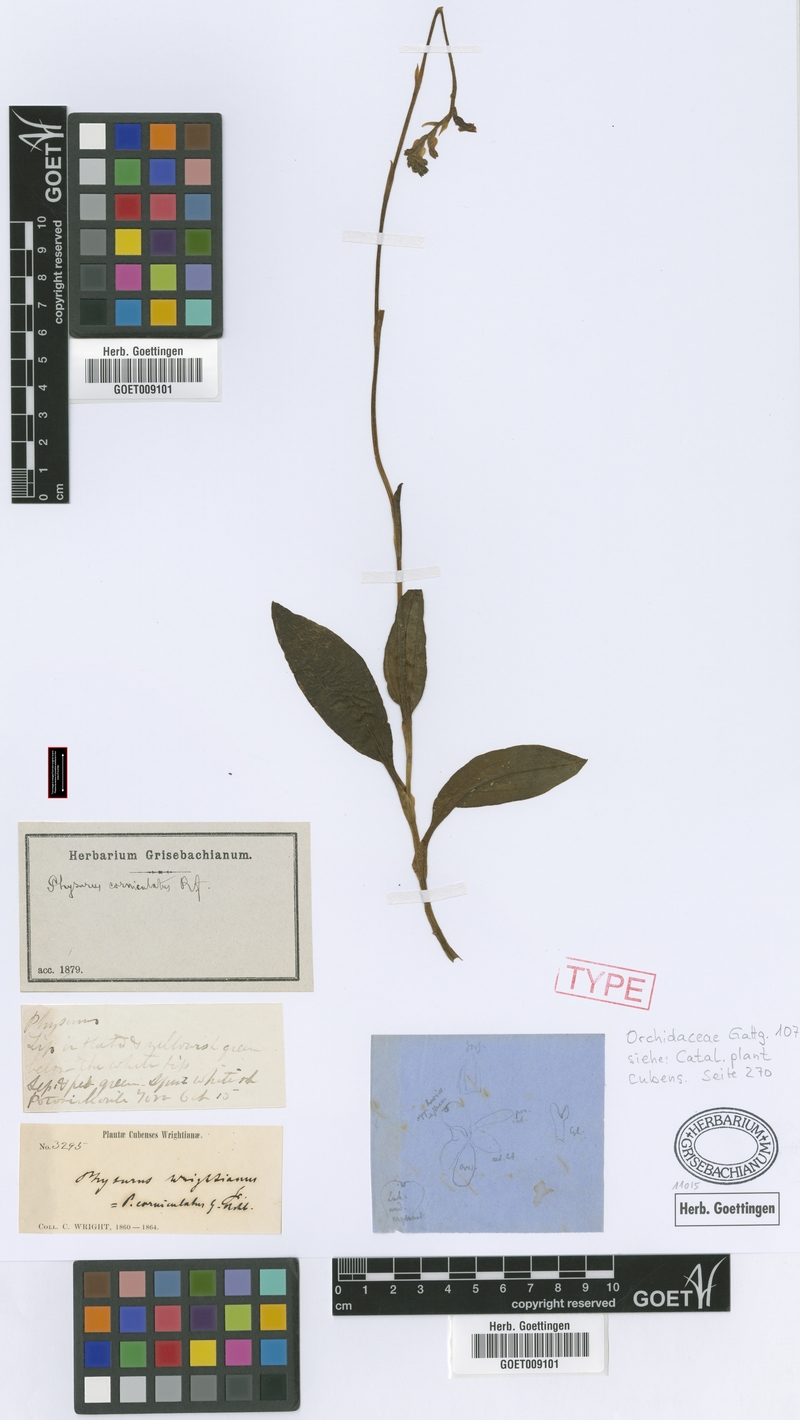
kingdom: Plantae
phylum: Tracheophyta
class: Liliopsida
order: Asparagales
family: Orchidaceae
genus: Goodyera
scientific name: Goodyera corniculata
